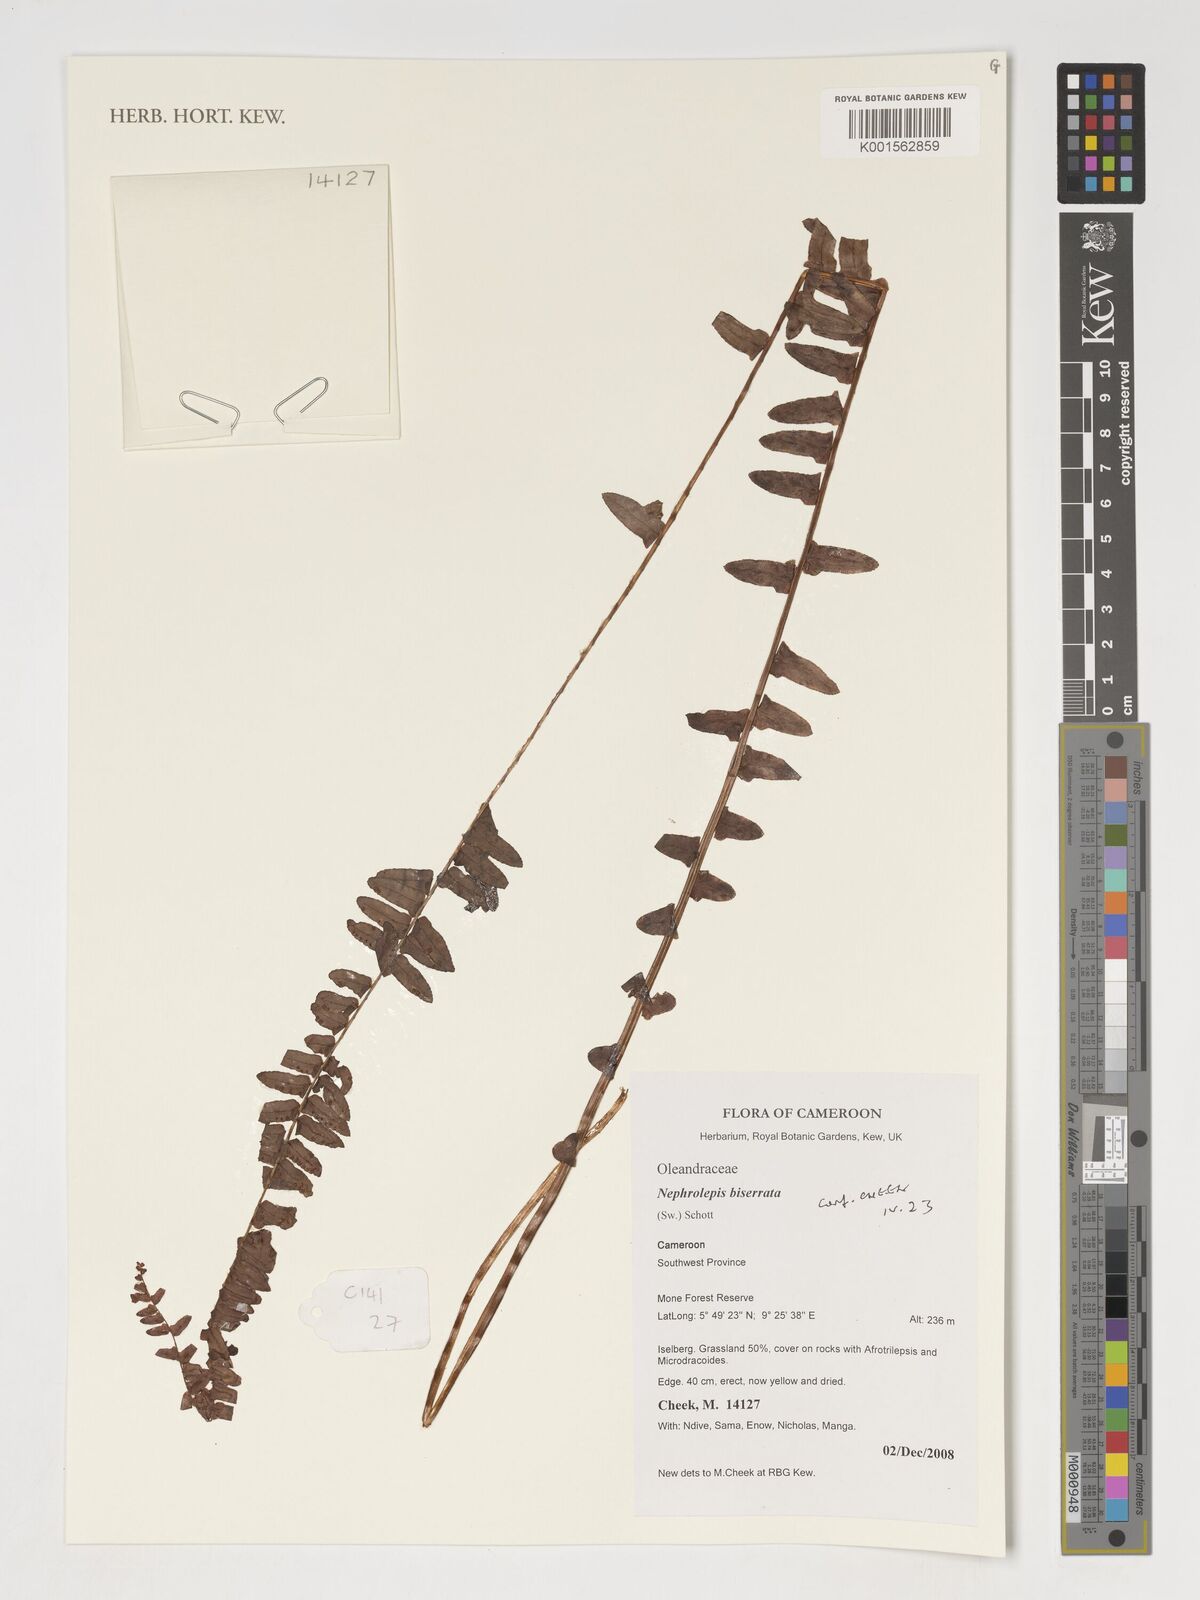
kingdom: Plantae
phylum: Tracheophyta
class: Polypodiopsida
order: Polypodiales
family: Nephrolepidaceae
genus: Nephrolepis
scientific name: Nephrolepis biserrata
